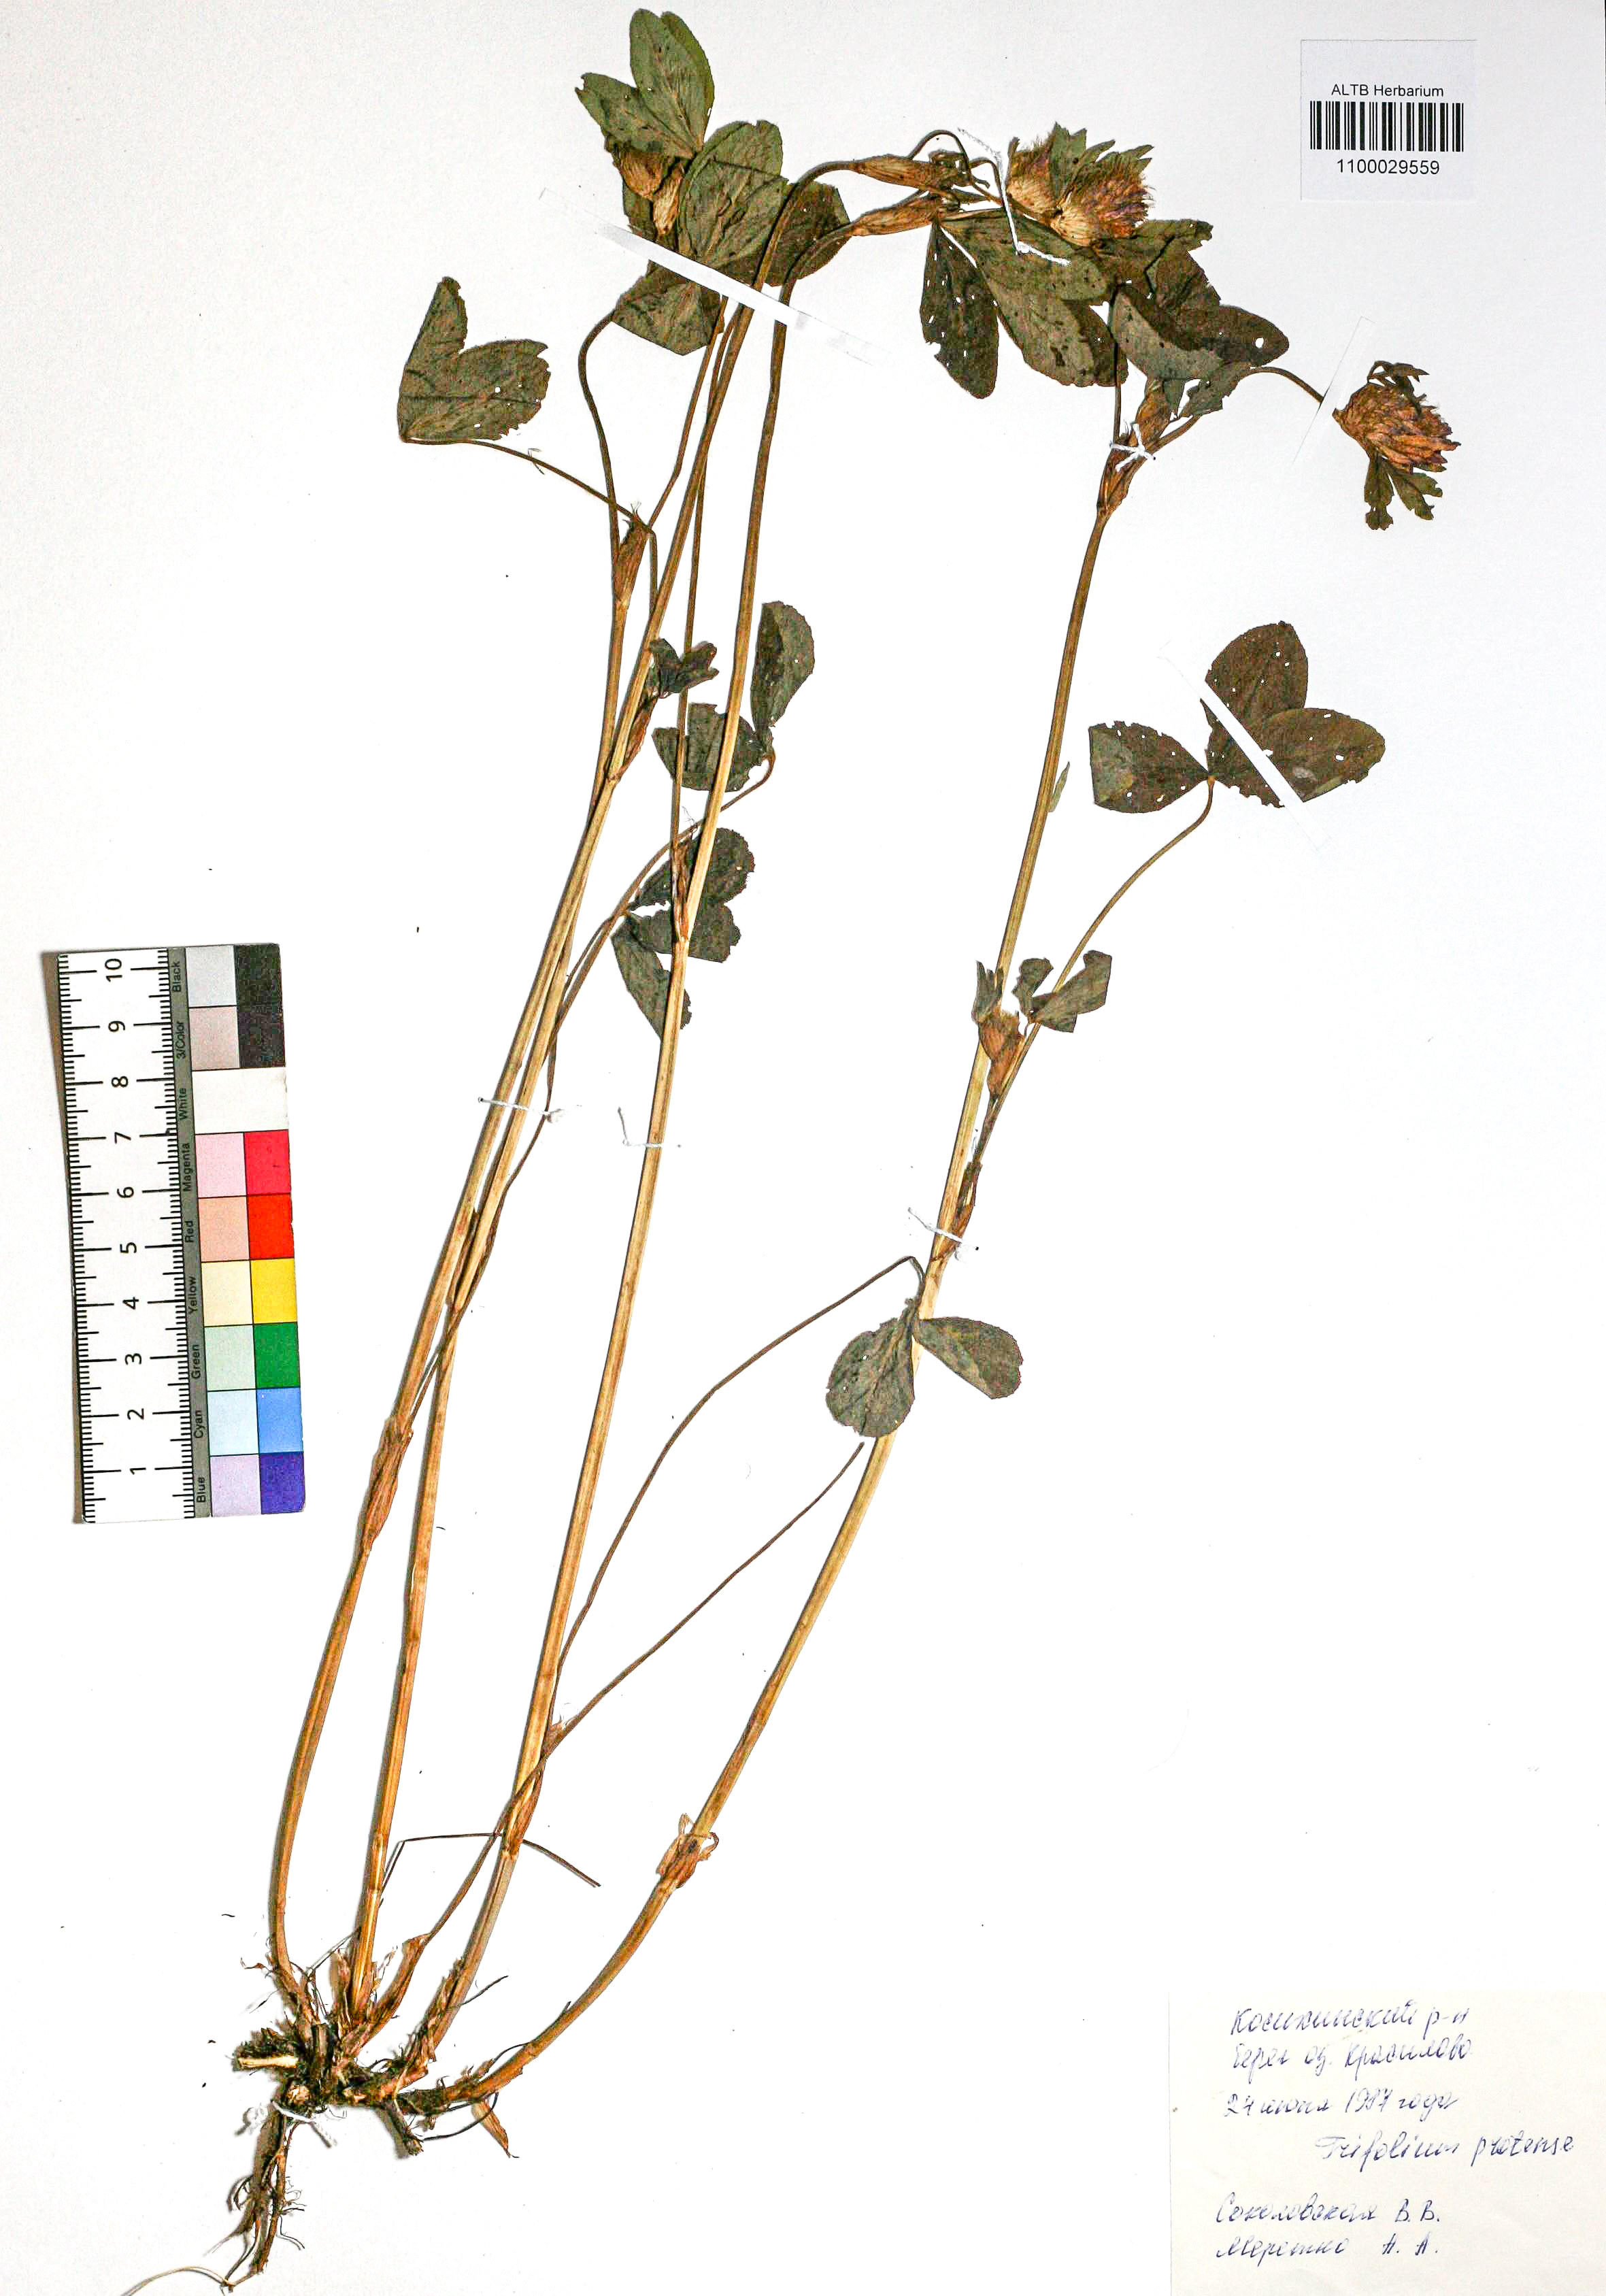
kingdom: Plantae
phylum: Tracheophyta
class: Magnoliopsida
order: Fabales
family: Fabaceae
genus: Trifolium
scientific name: Trifolium pratense
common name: Red clover
